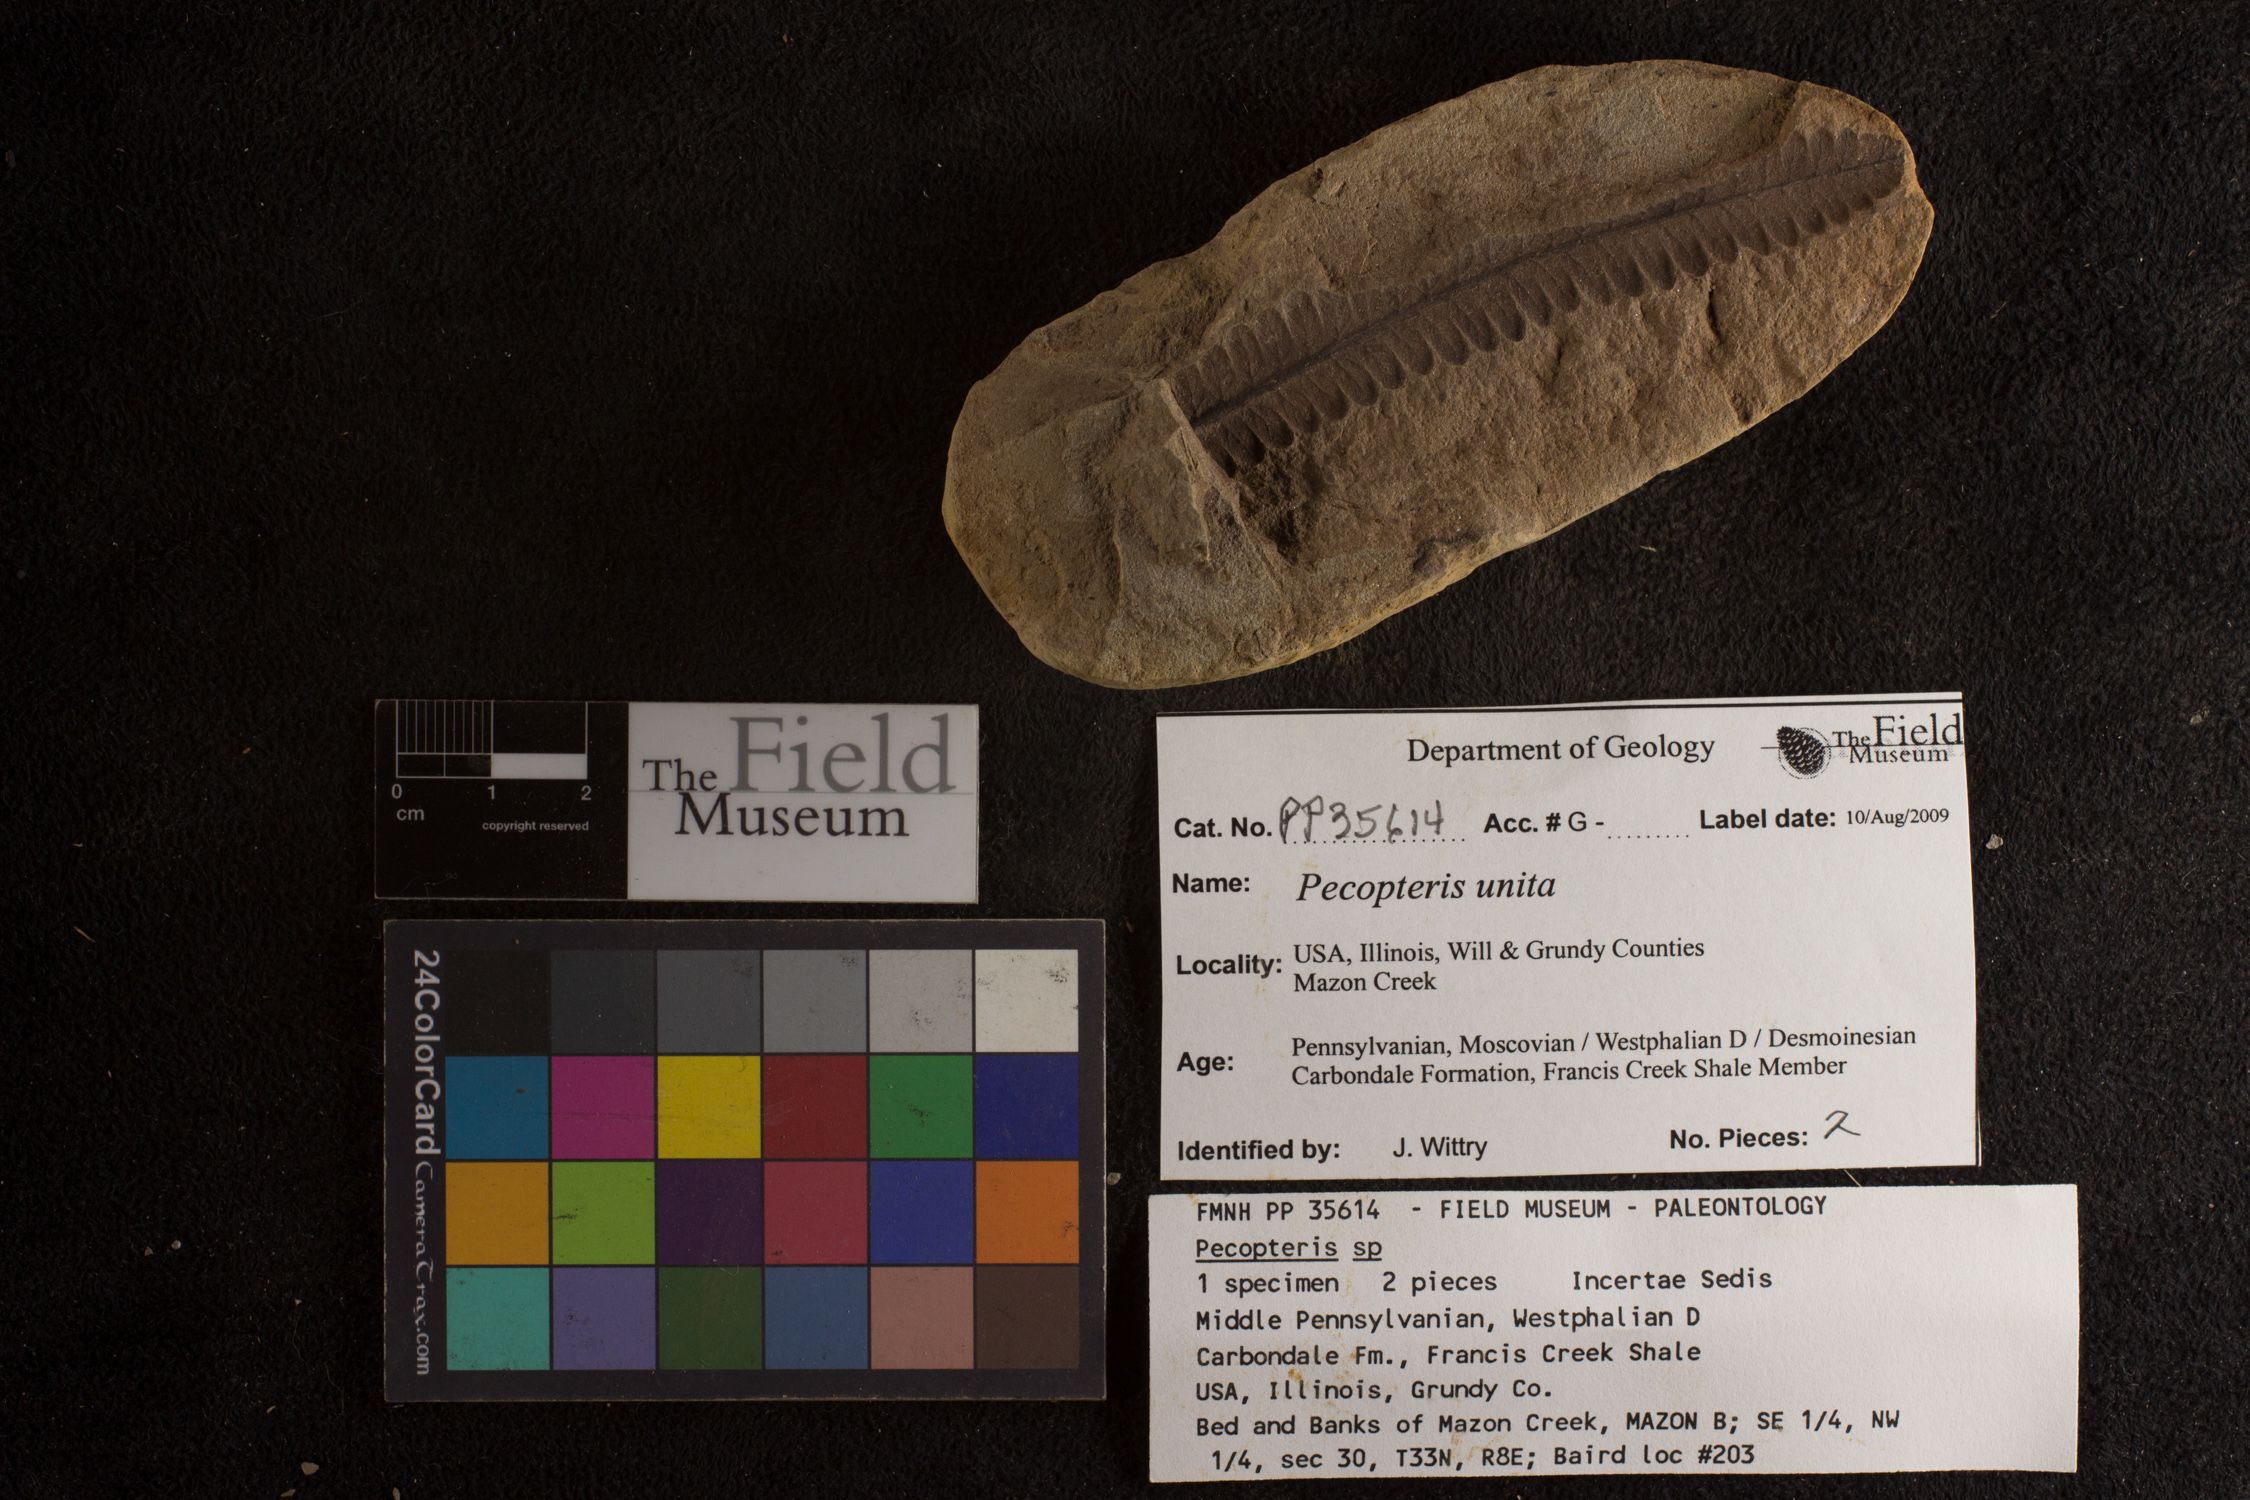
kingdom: Plantae
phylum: Tracheophyta
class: Polypodiopsida
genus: Diplazites
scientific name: Diplazites
